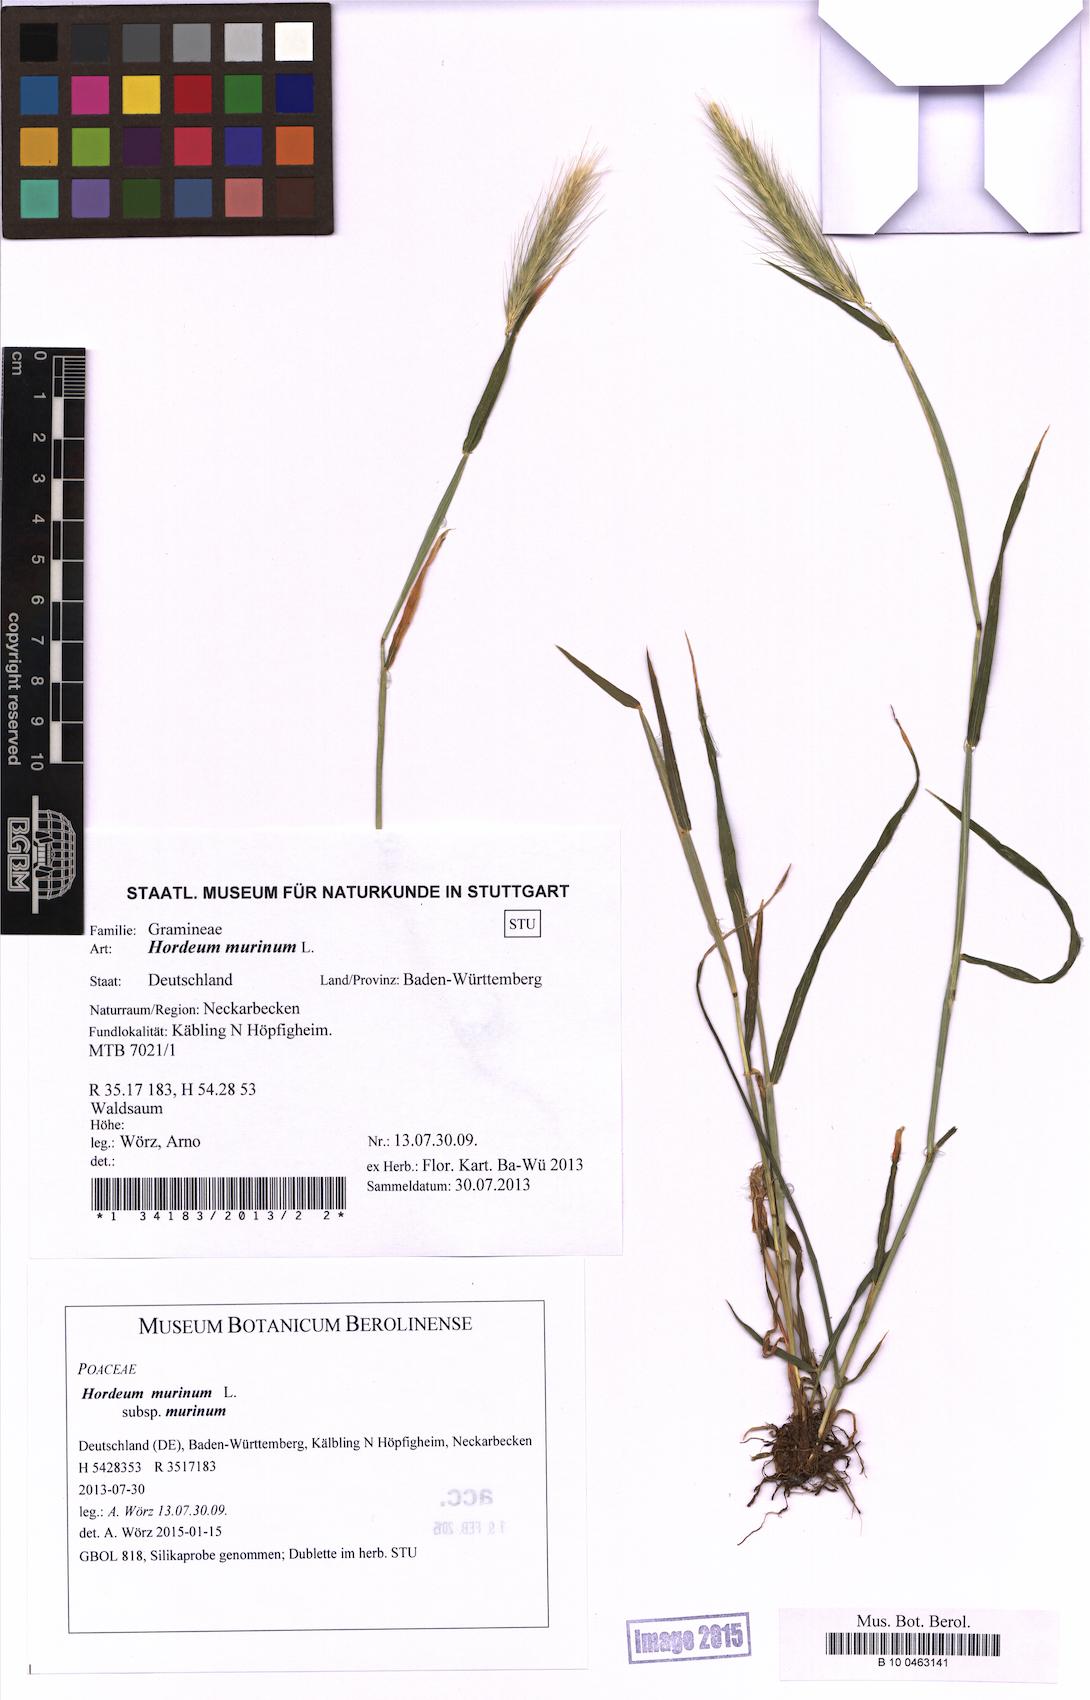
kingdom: Plantae
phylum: Tracheophyta
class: Liliopsida
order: Poales
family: Poaceae
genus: Hordeum
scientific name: Hordeum murinum
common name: Wall barley
